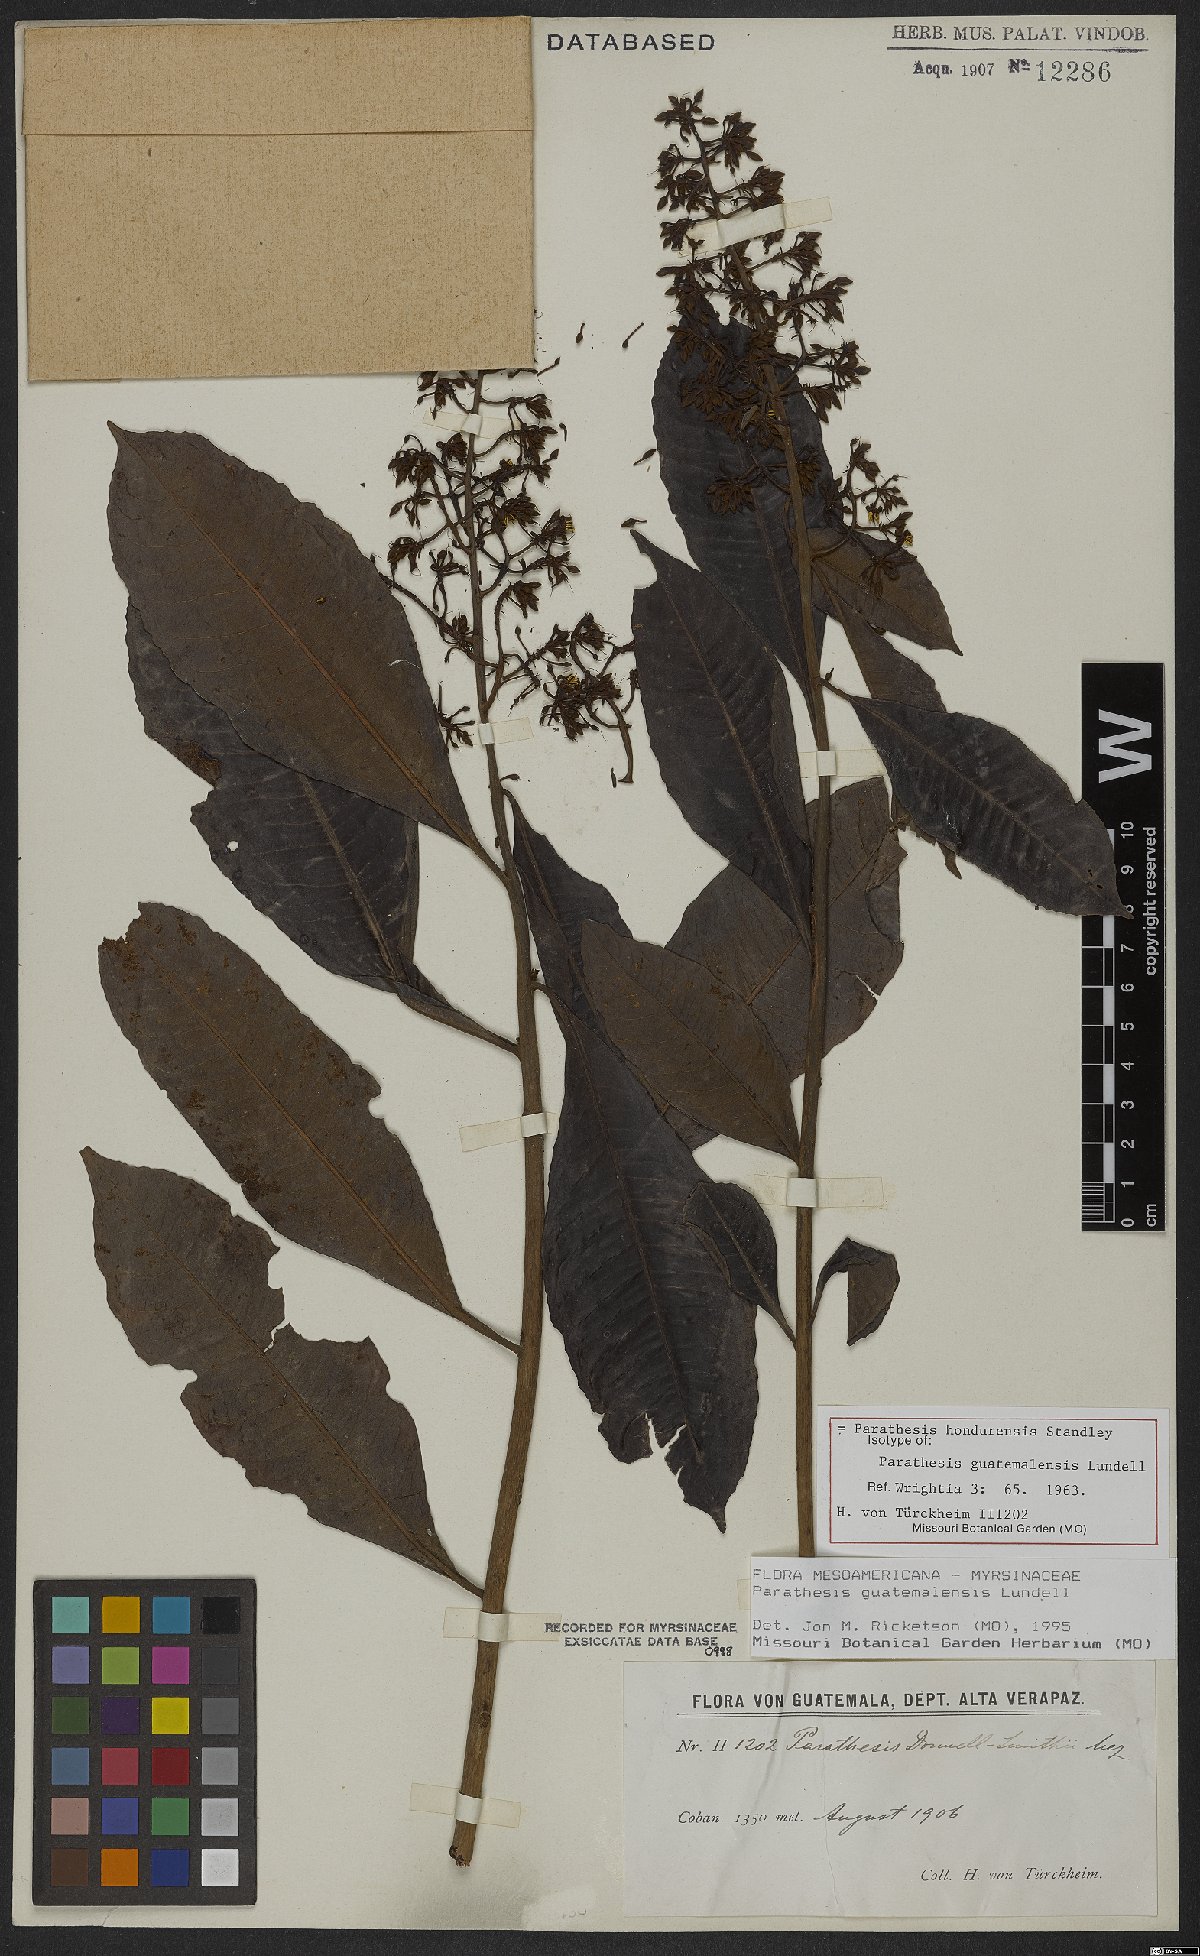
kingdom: Plantae
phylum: Tracheophyta
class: Magnoliopsida
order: Ericales
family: Primulaceae
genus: Parathesis
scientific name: Parathesis hondurensis
